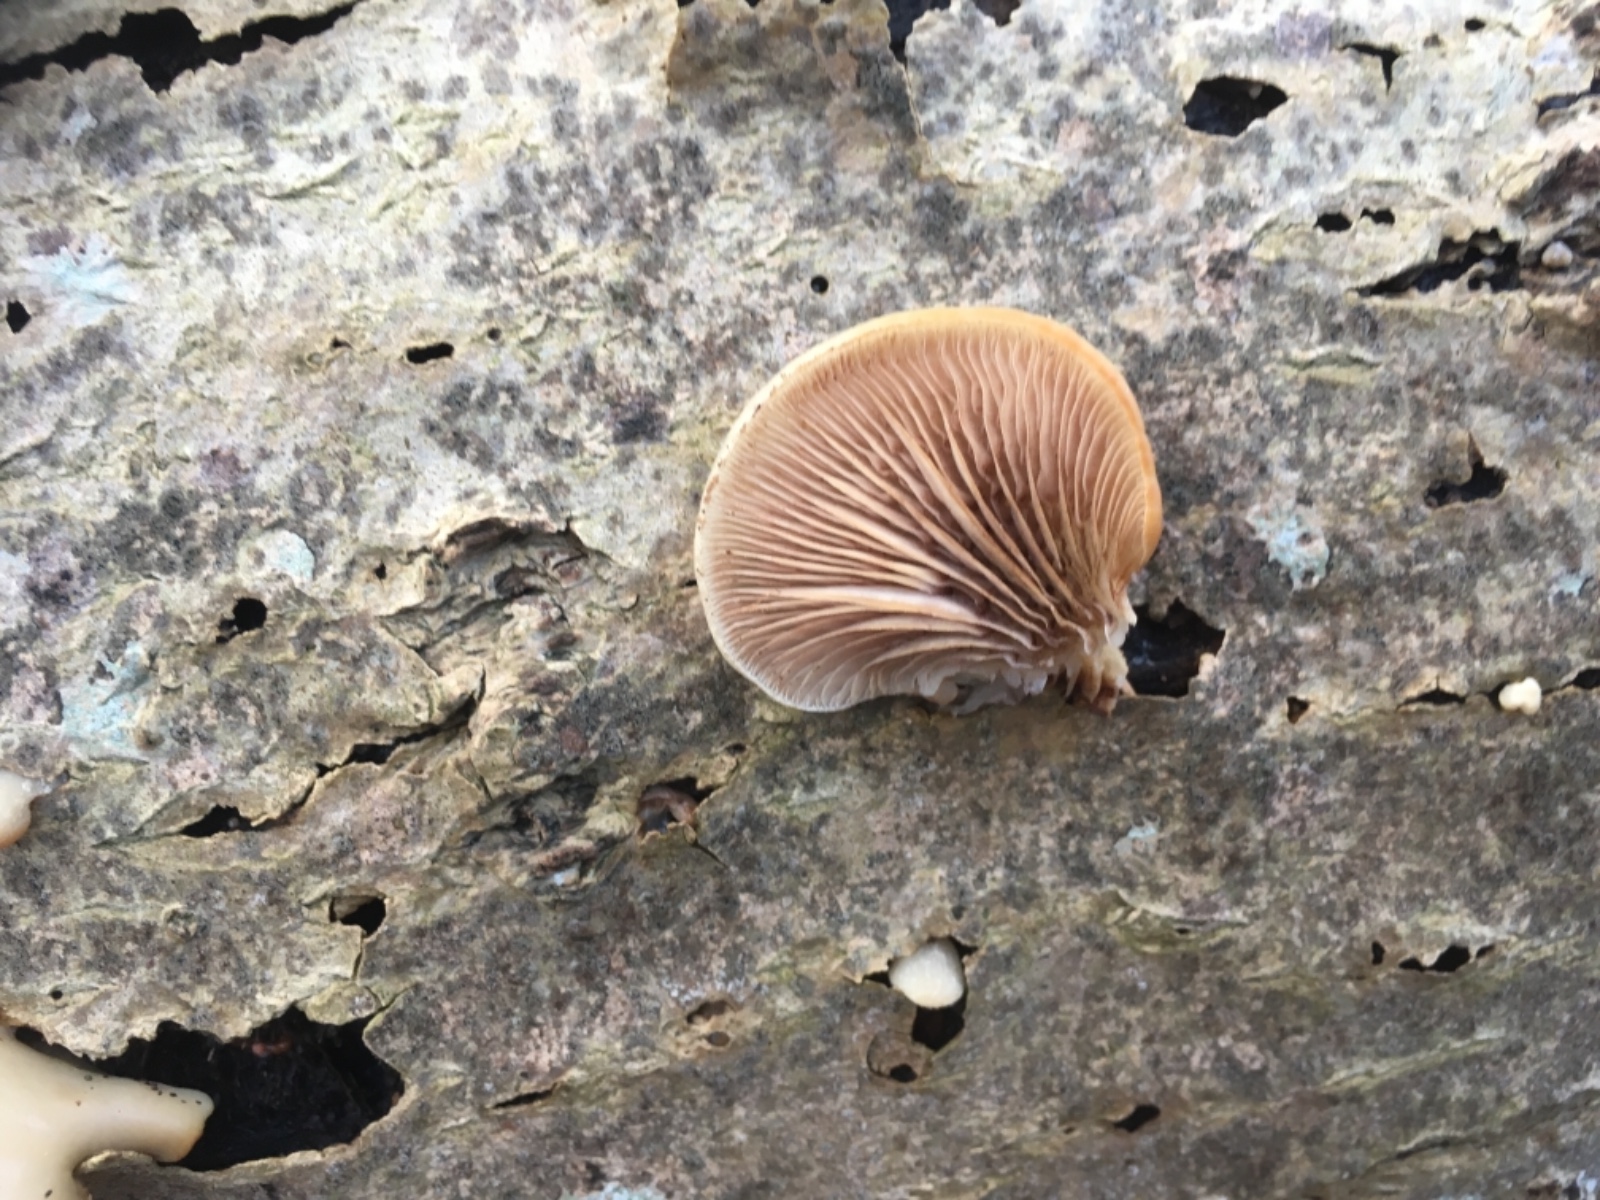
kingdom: Fungi
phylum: Basidiomycota
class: Agaricomycetes
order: Agaricales
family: Crepidotaceae
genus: Crepidotus
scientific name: Crepidotus mollis
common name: blød muslingesvamp
